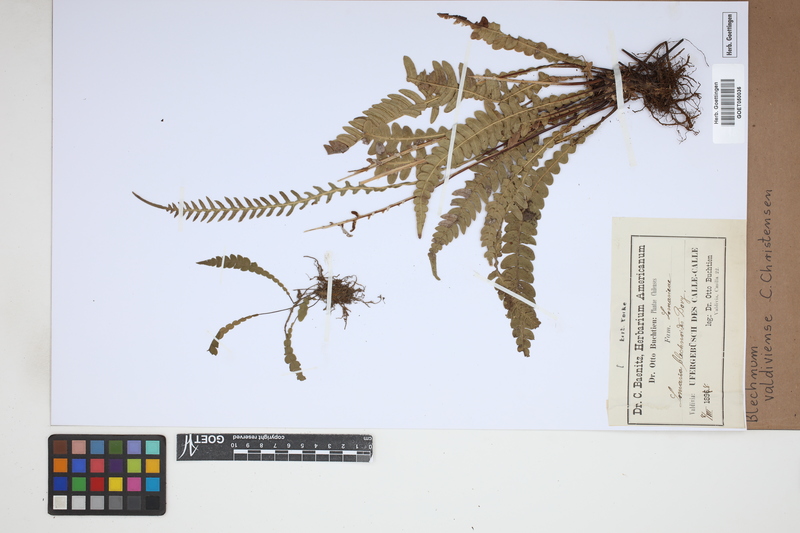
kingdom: Plantae
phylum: Tracheophyta
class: Polypodiopsida
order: Polypodiales
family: Blechnaceae
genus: Austroblechnum
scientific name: Austroblechnum leyboldtianum
